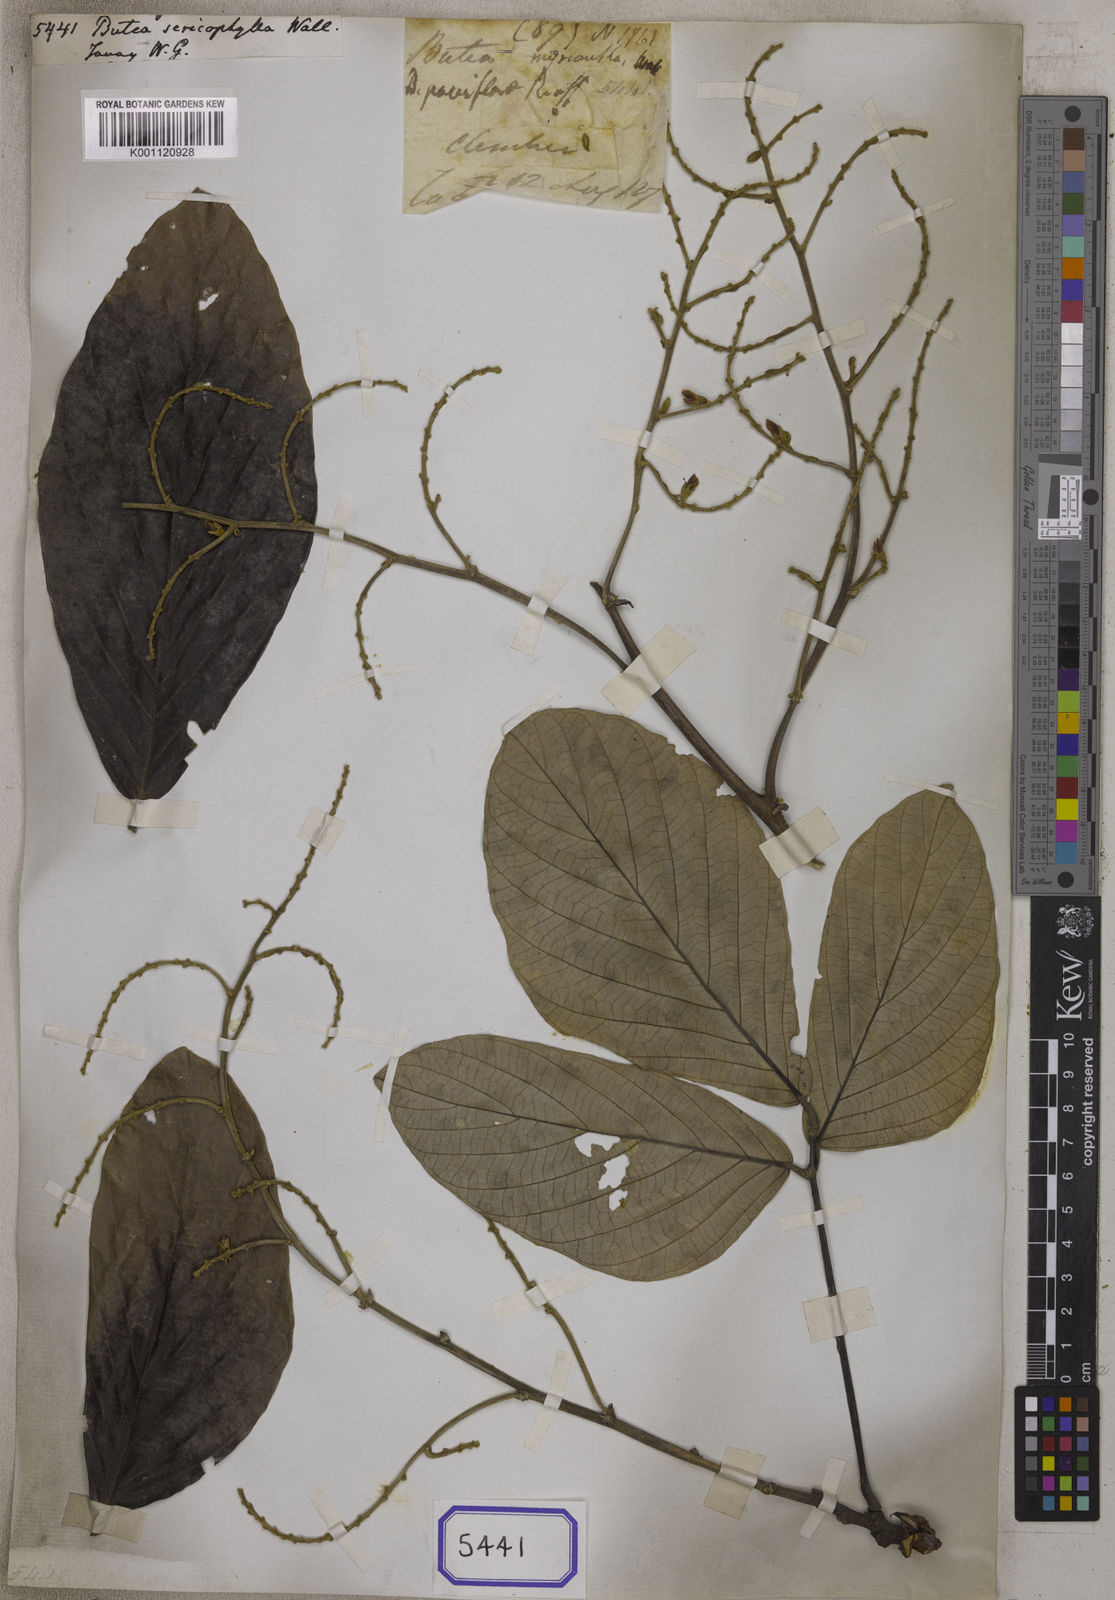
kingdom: Plantae
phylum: Tracheophyta
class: Magnoliopsida
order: Fabales
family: Fabaceae
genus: Spatholobus
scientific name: Spatholobus parviflorus
